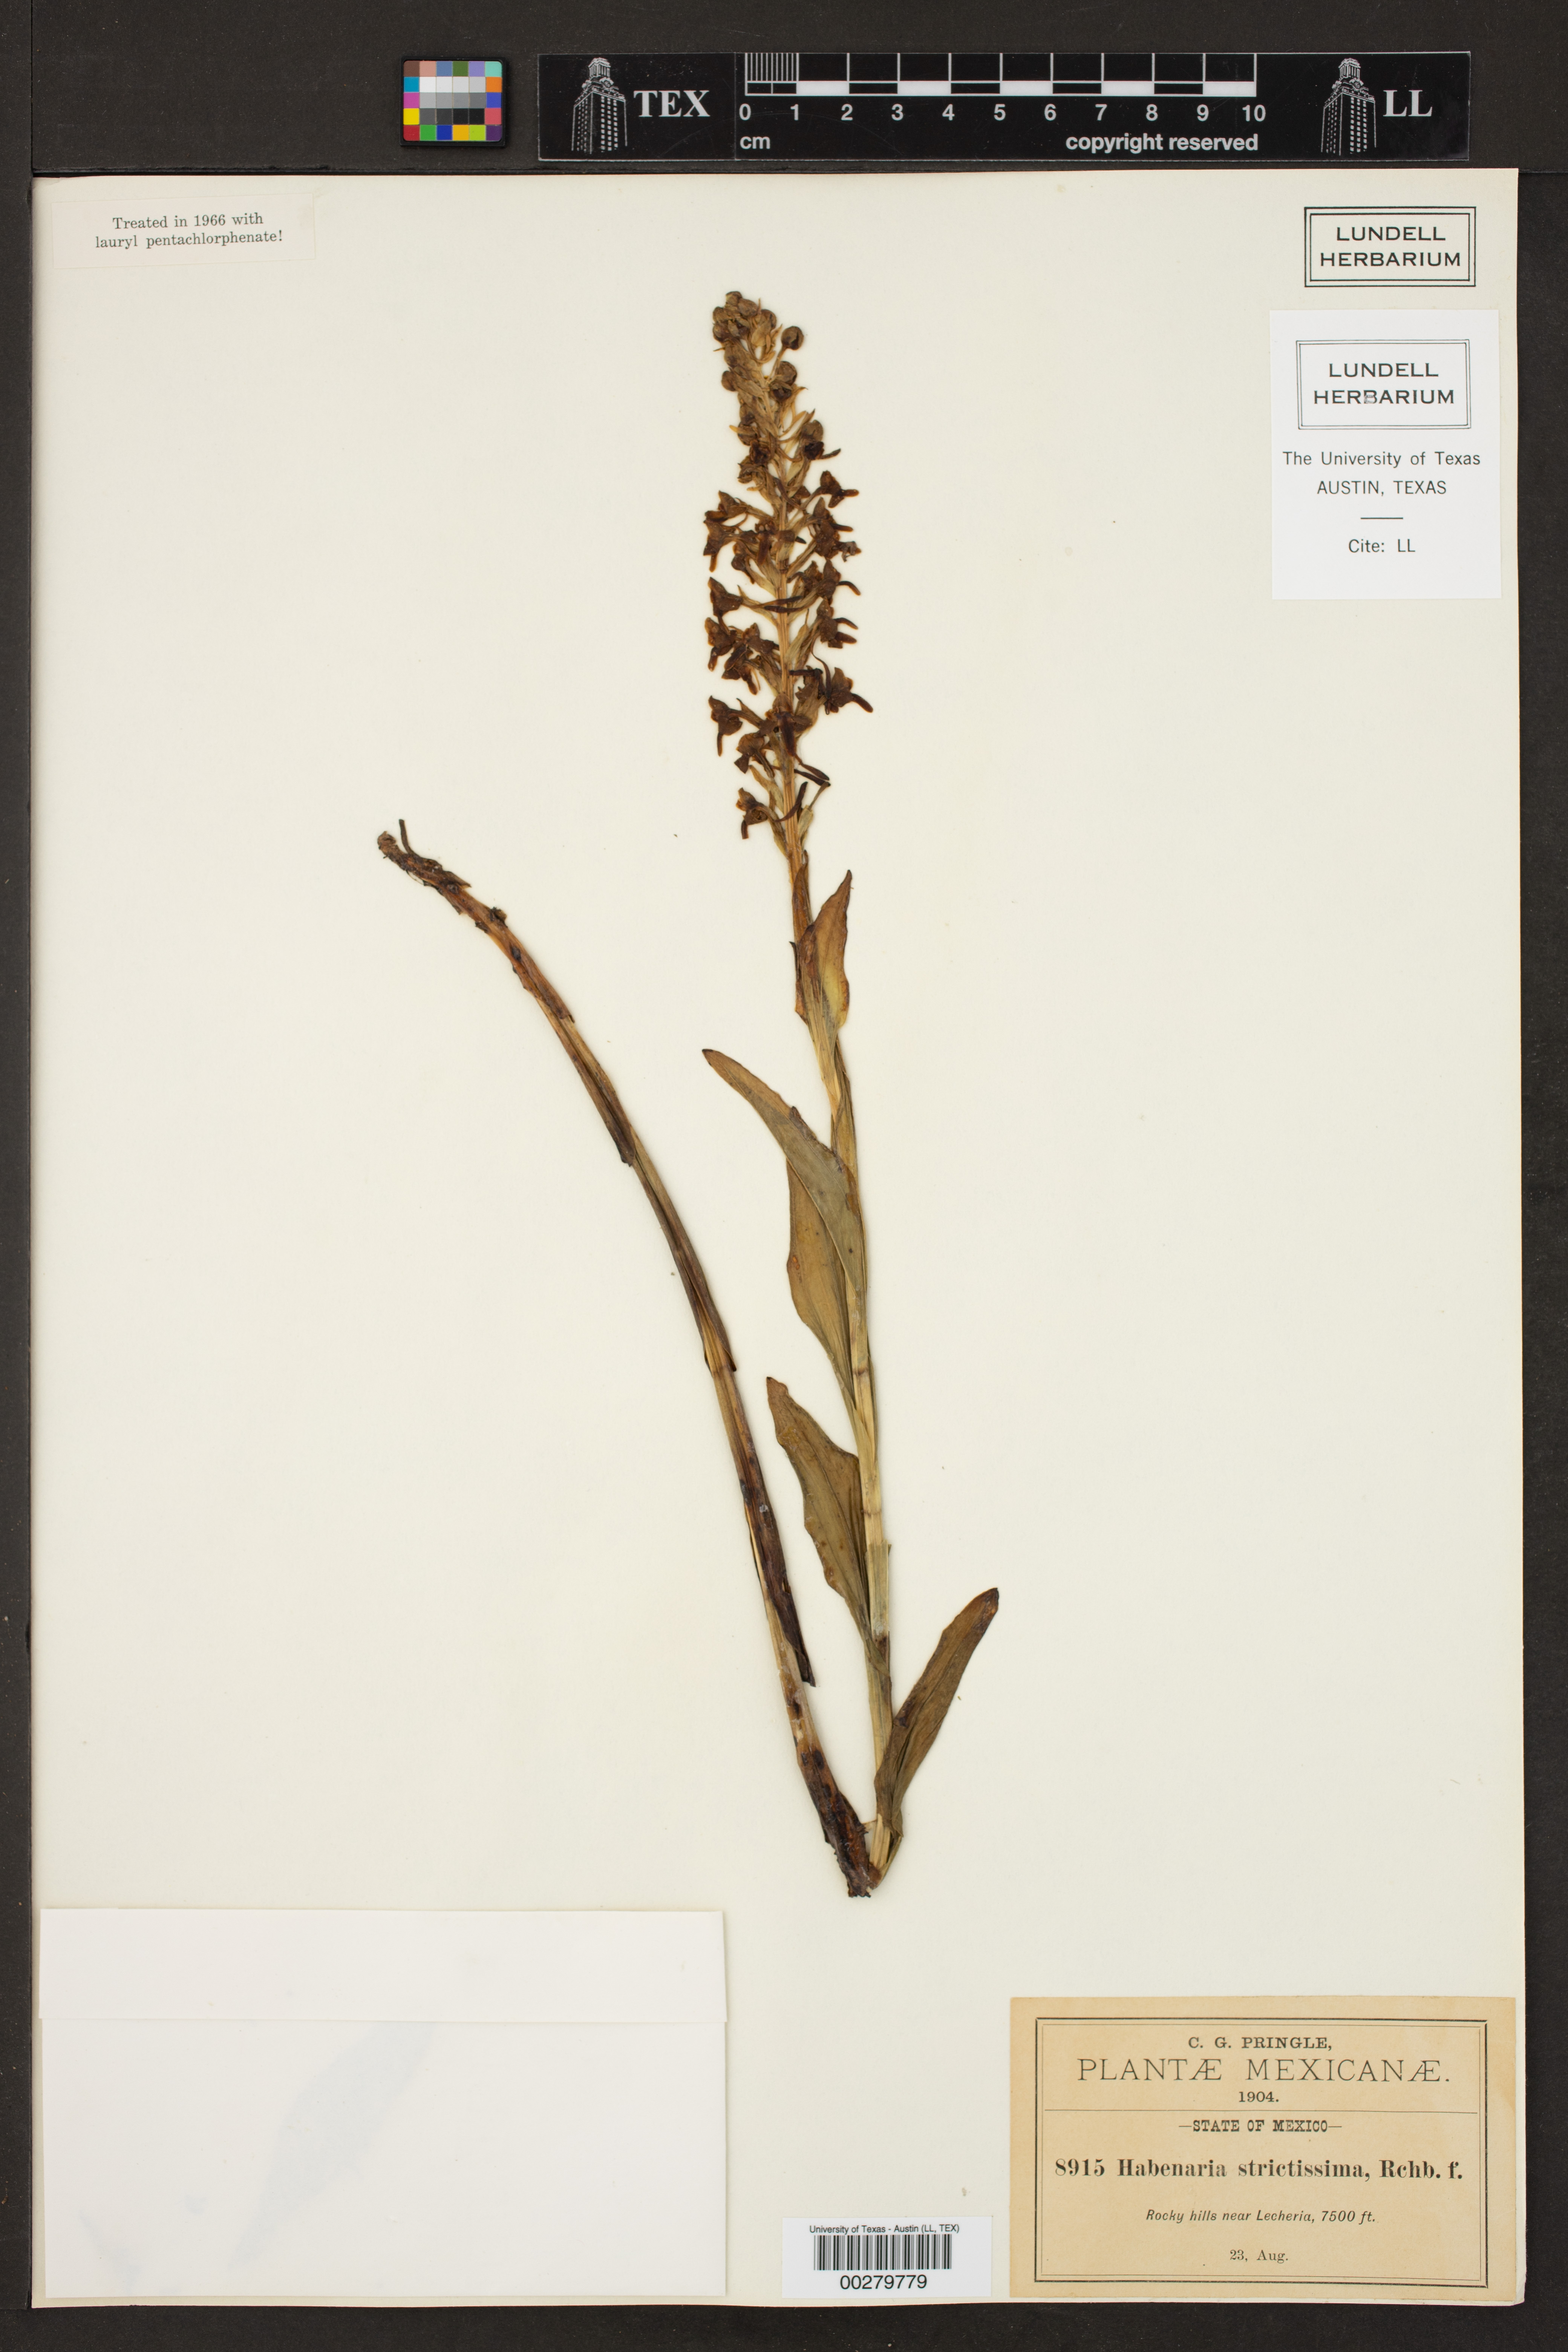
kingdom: Plantae
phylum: Tracheophyta
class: Liliopsida
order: Asparagales
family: Orchidaceae
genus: Habenaria
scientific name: Habenaria strictissima
